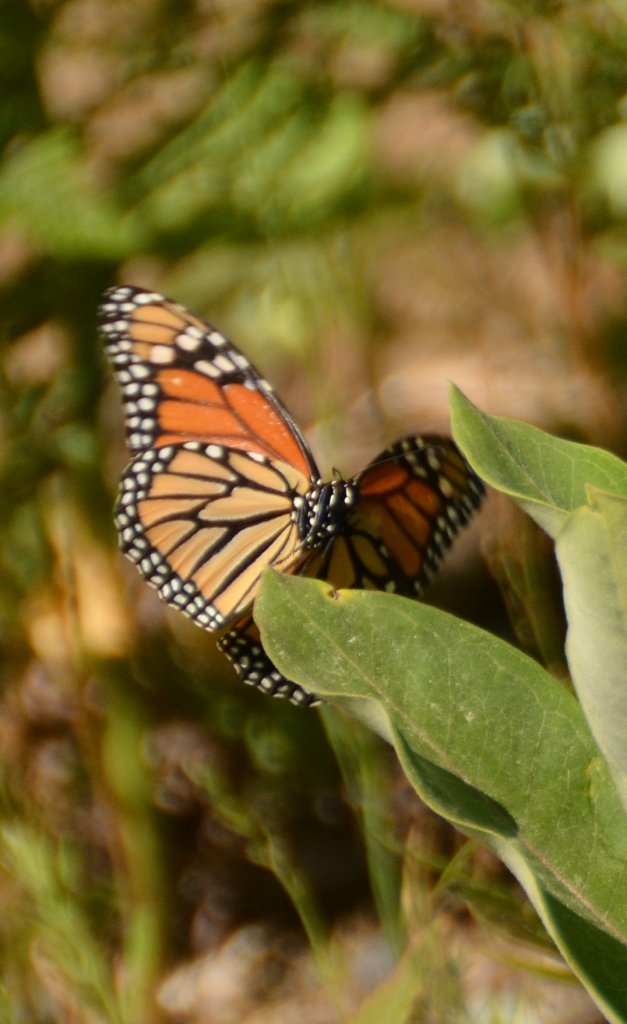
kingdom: Animalia
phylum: Arthropoda
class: Insecta
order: Lepidoptera
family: Nymphalidae
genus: Danaus
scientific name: Danaus plexippus
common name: Monarch
